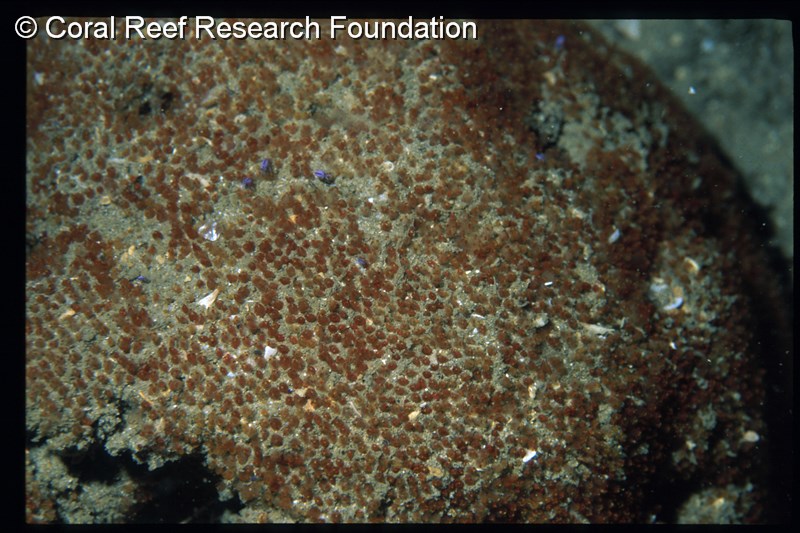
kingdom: Animalia
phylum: Chordata
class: Ascidiacea
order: Aplousobranchia
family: Clavelinidae
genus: Pycnoclavella
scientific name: Pycnoclavella filamentosa
